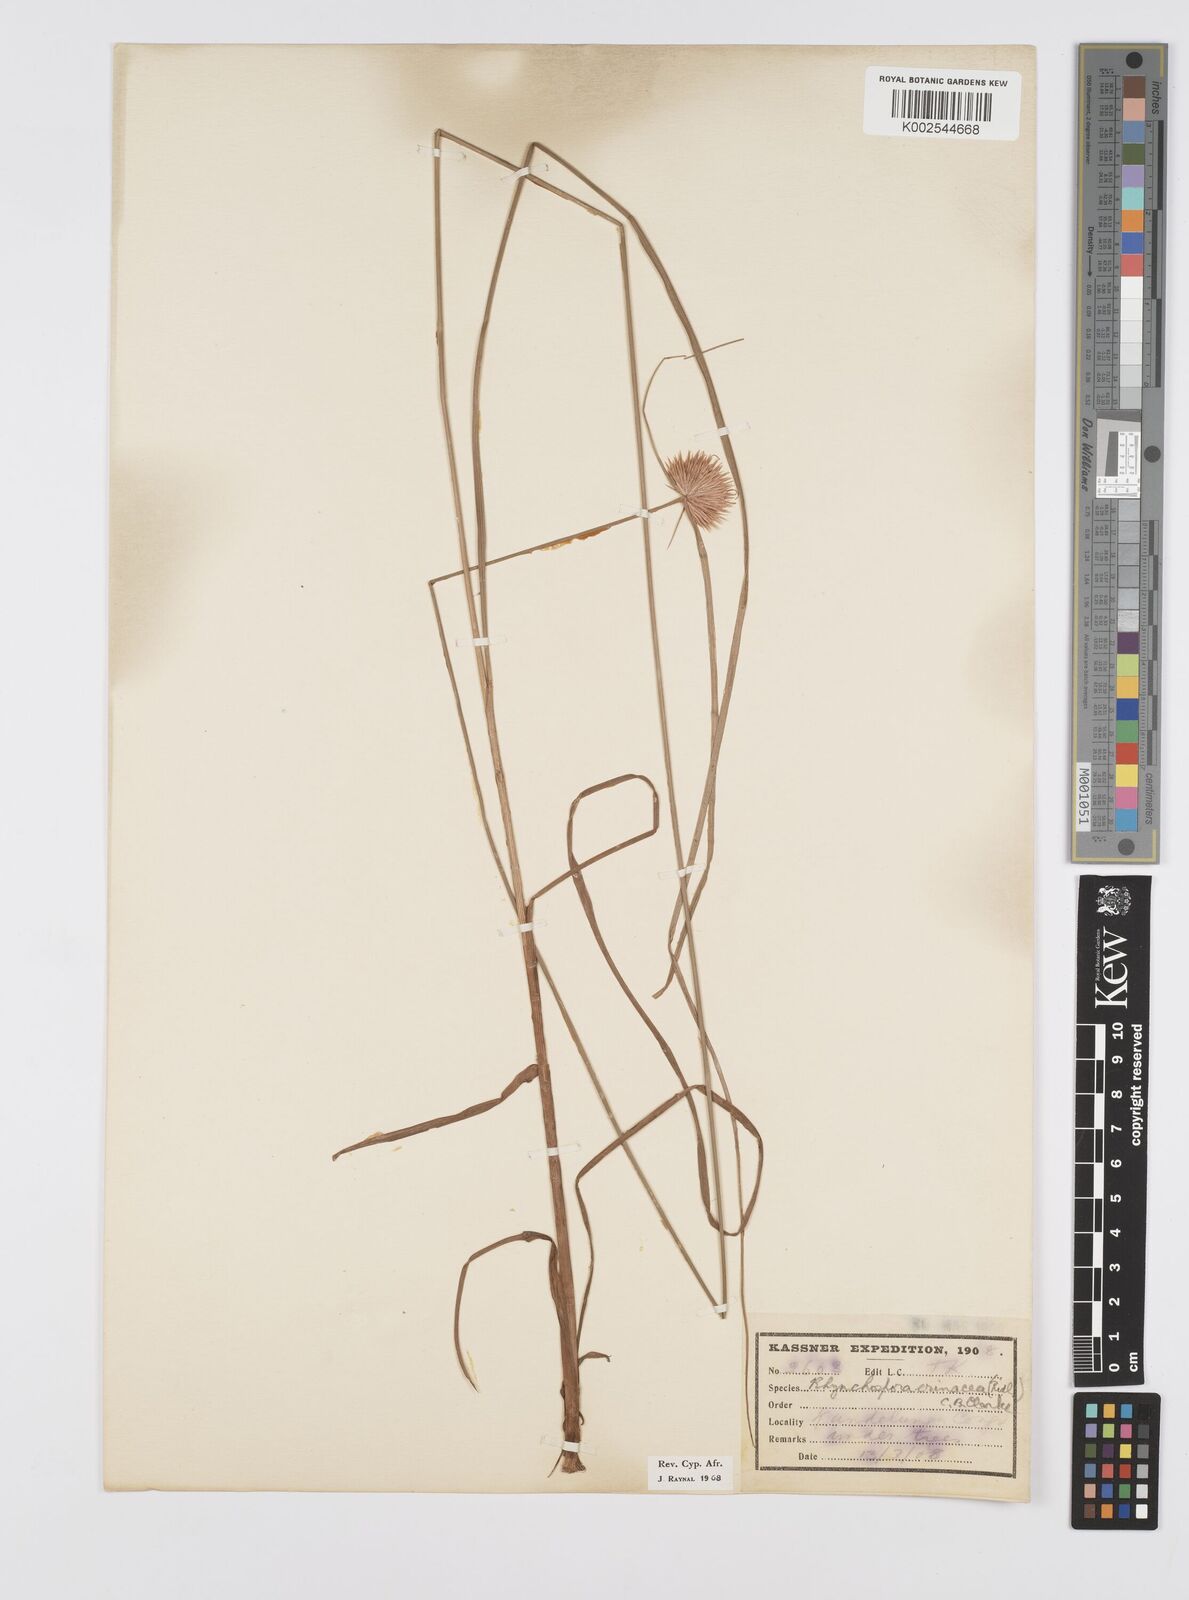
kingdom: Plantae
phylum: Tracheophyta
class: Liliopsida
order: Poales
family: Cyperaceae
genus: Cyperus
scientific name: Cyperus erinaceus
